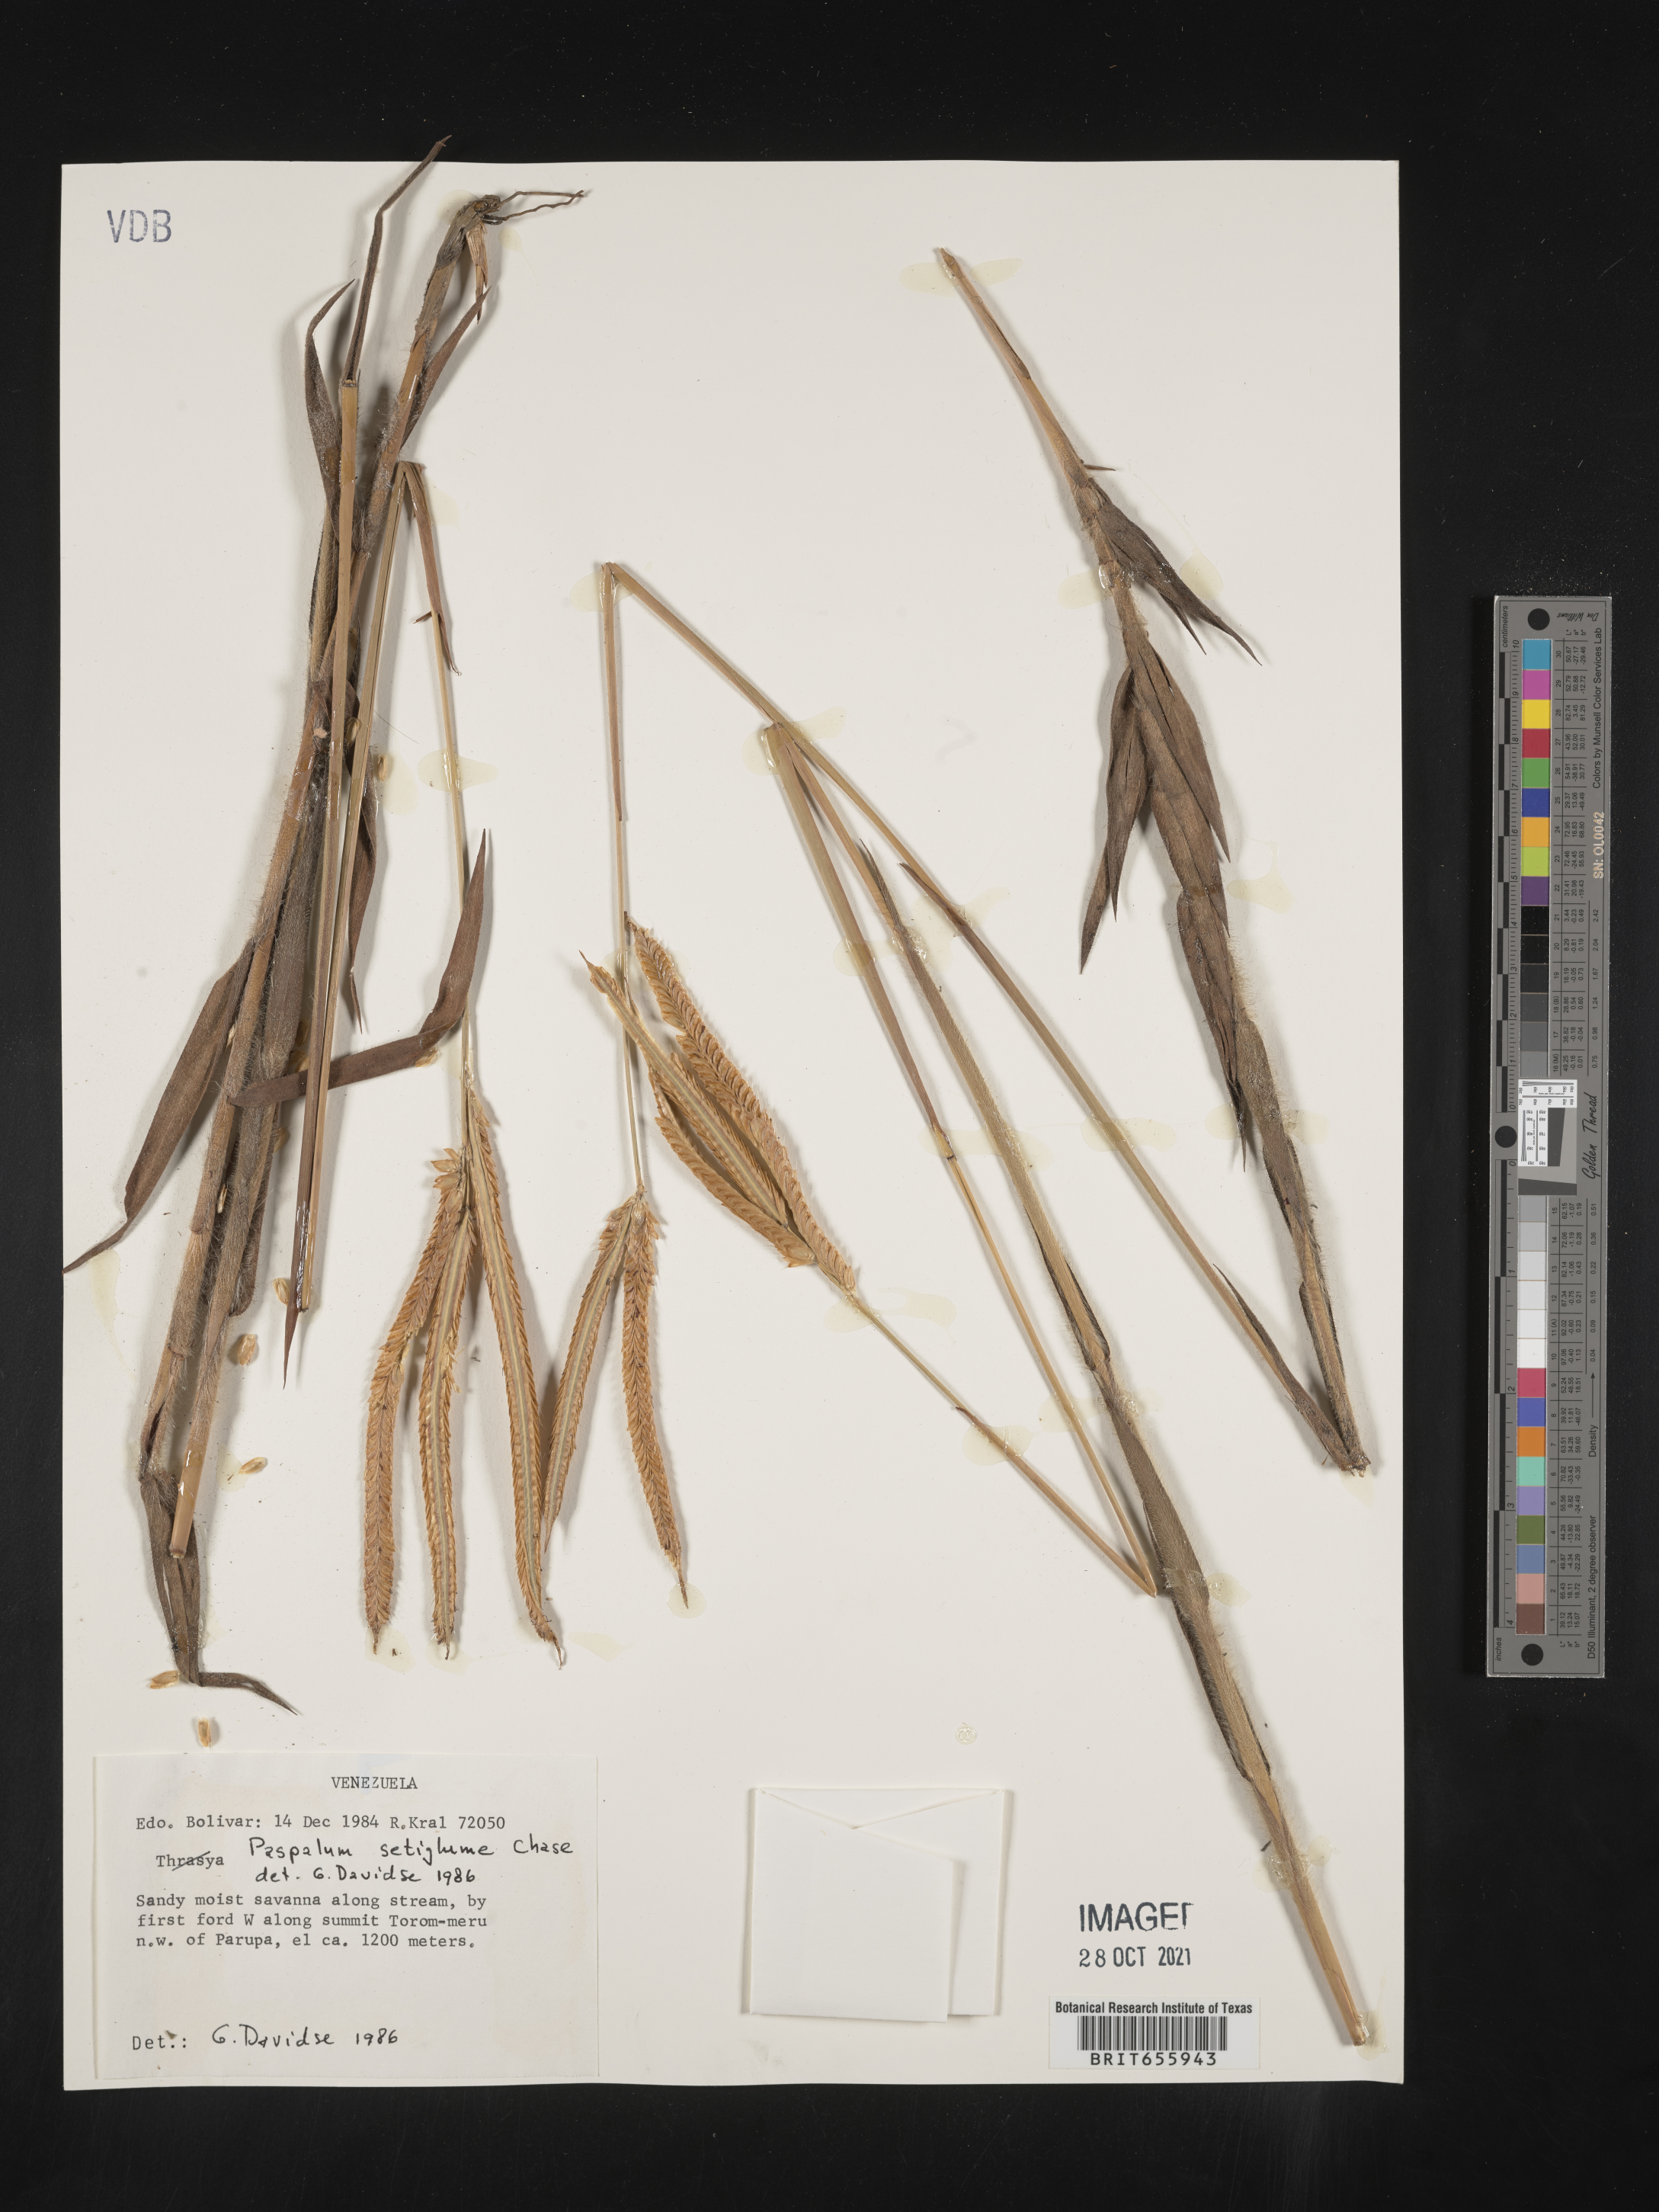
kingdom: Plantae
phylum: Tracheophyta
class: Liliopsida
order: Poales
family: Poaceae
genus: Paspalum
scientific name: Paspalum
